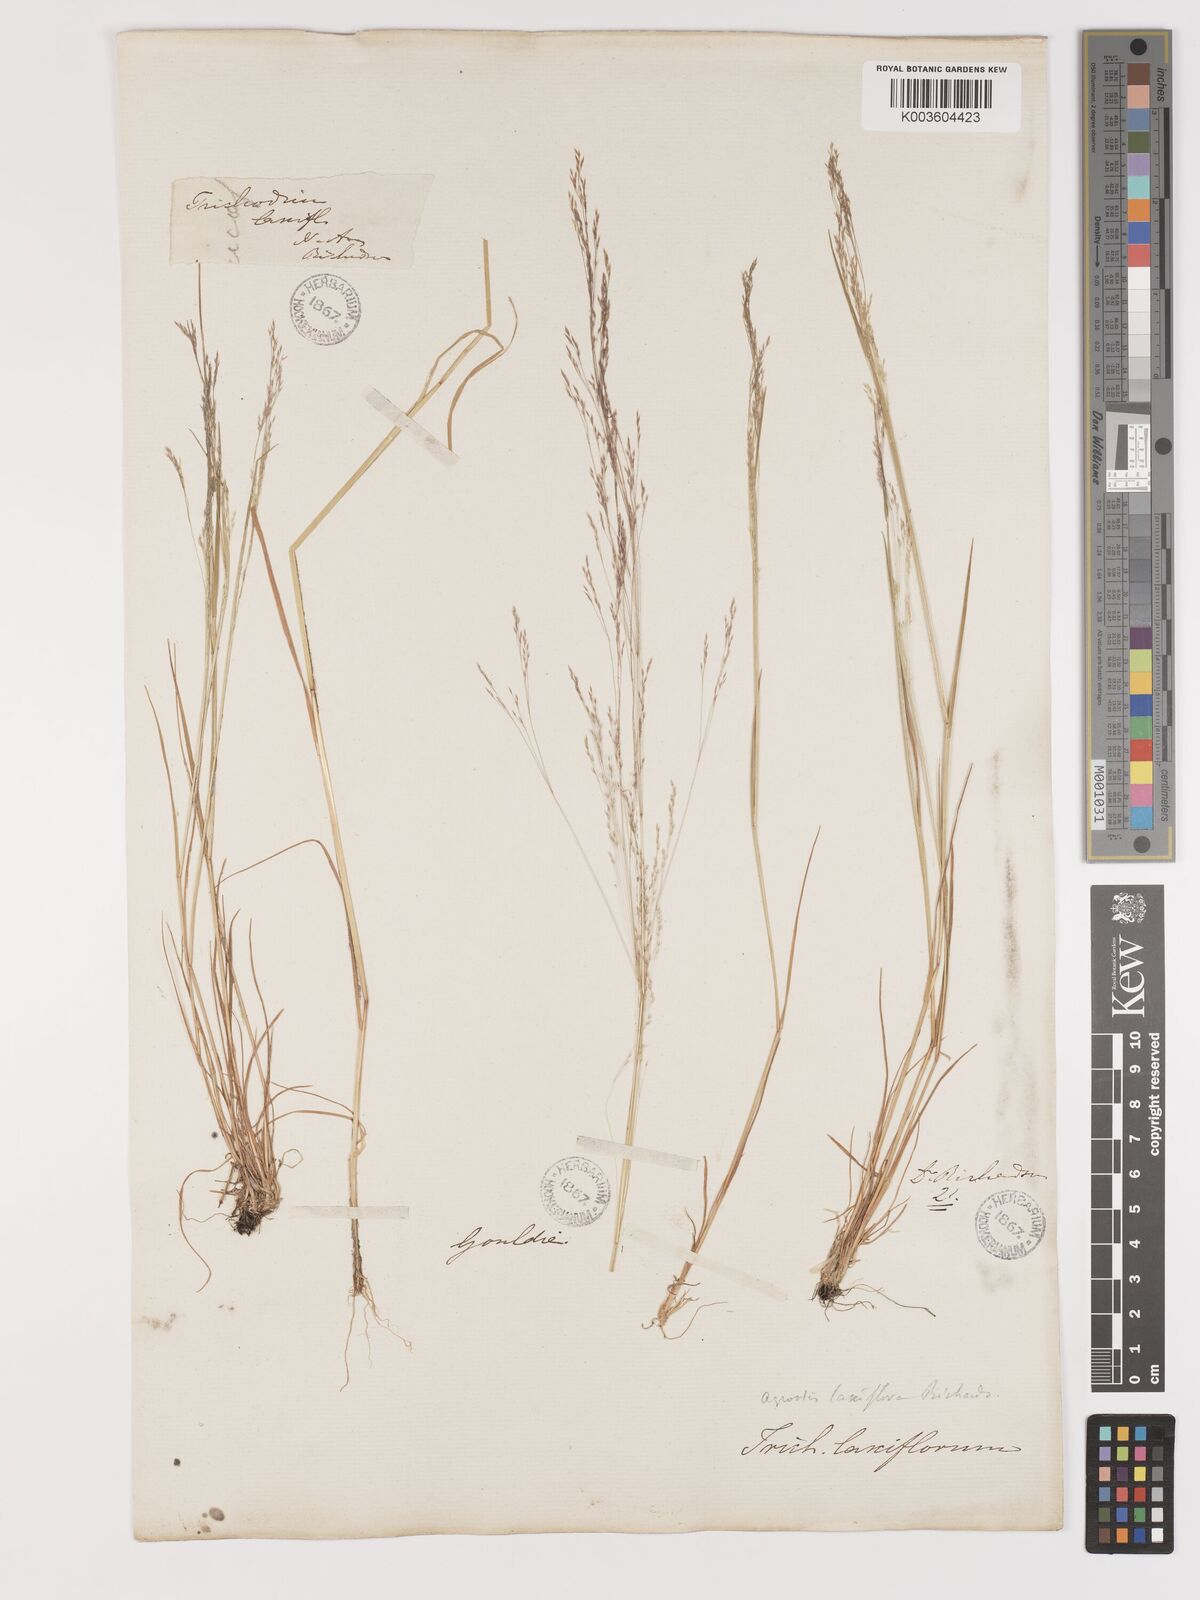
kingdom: Plantae
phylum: Tracheophyta
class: Liliopsida
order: Poales
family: Poaceae
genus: Agrostis
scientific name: Agrostis hyemalis
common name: Small bent
